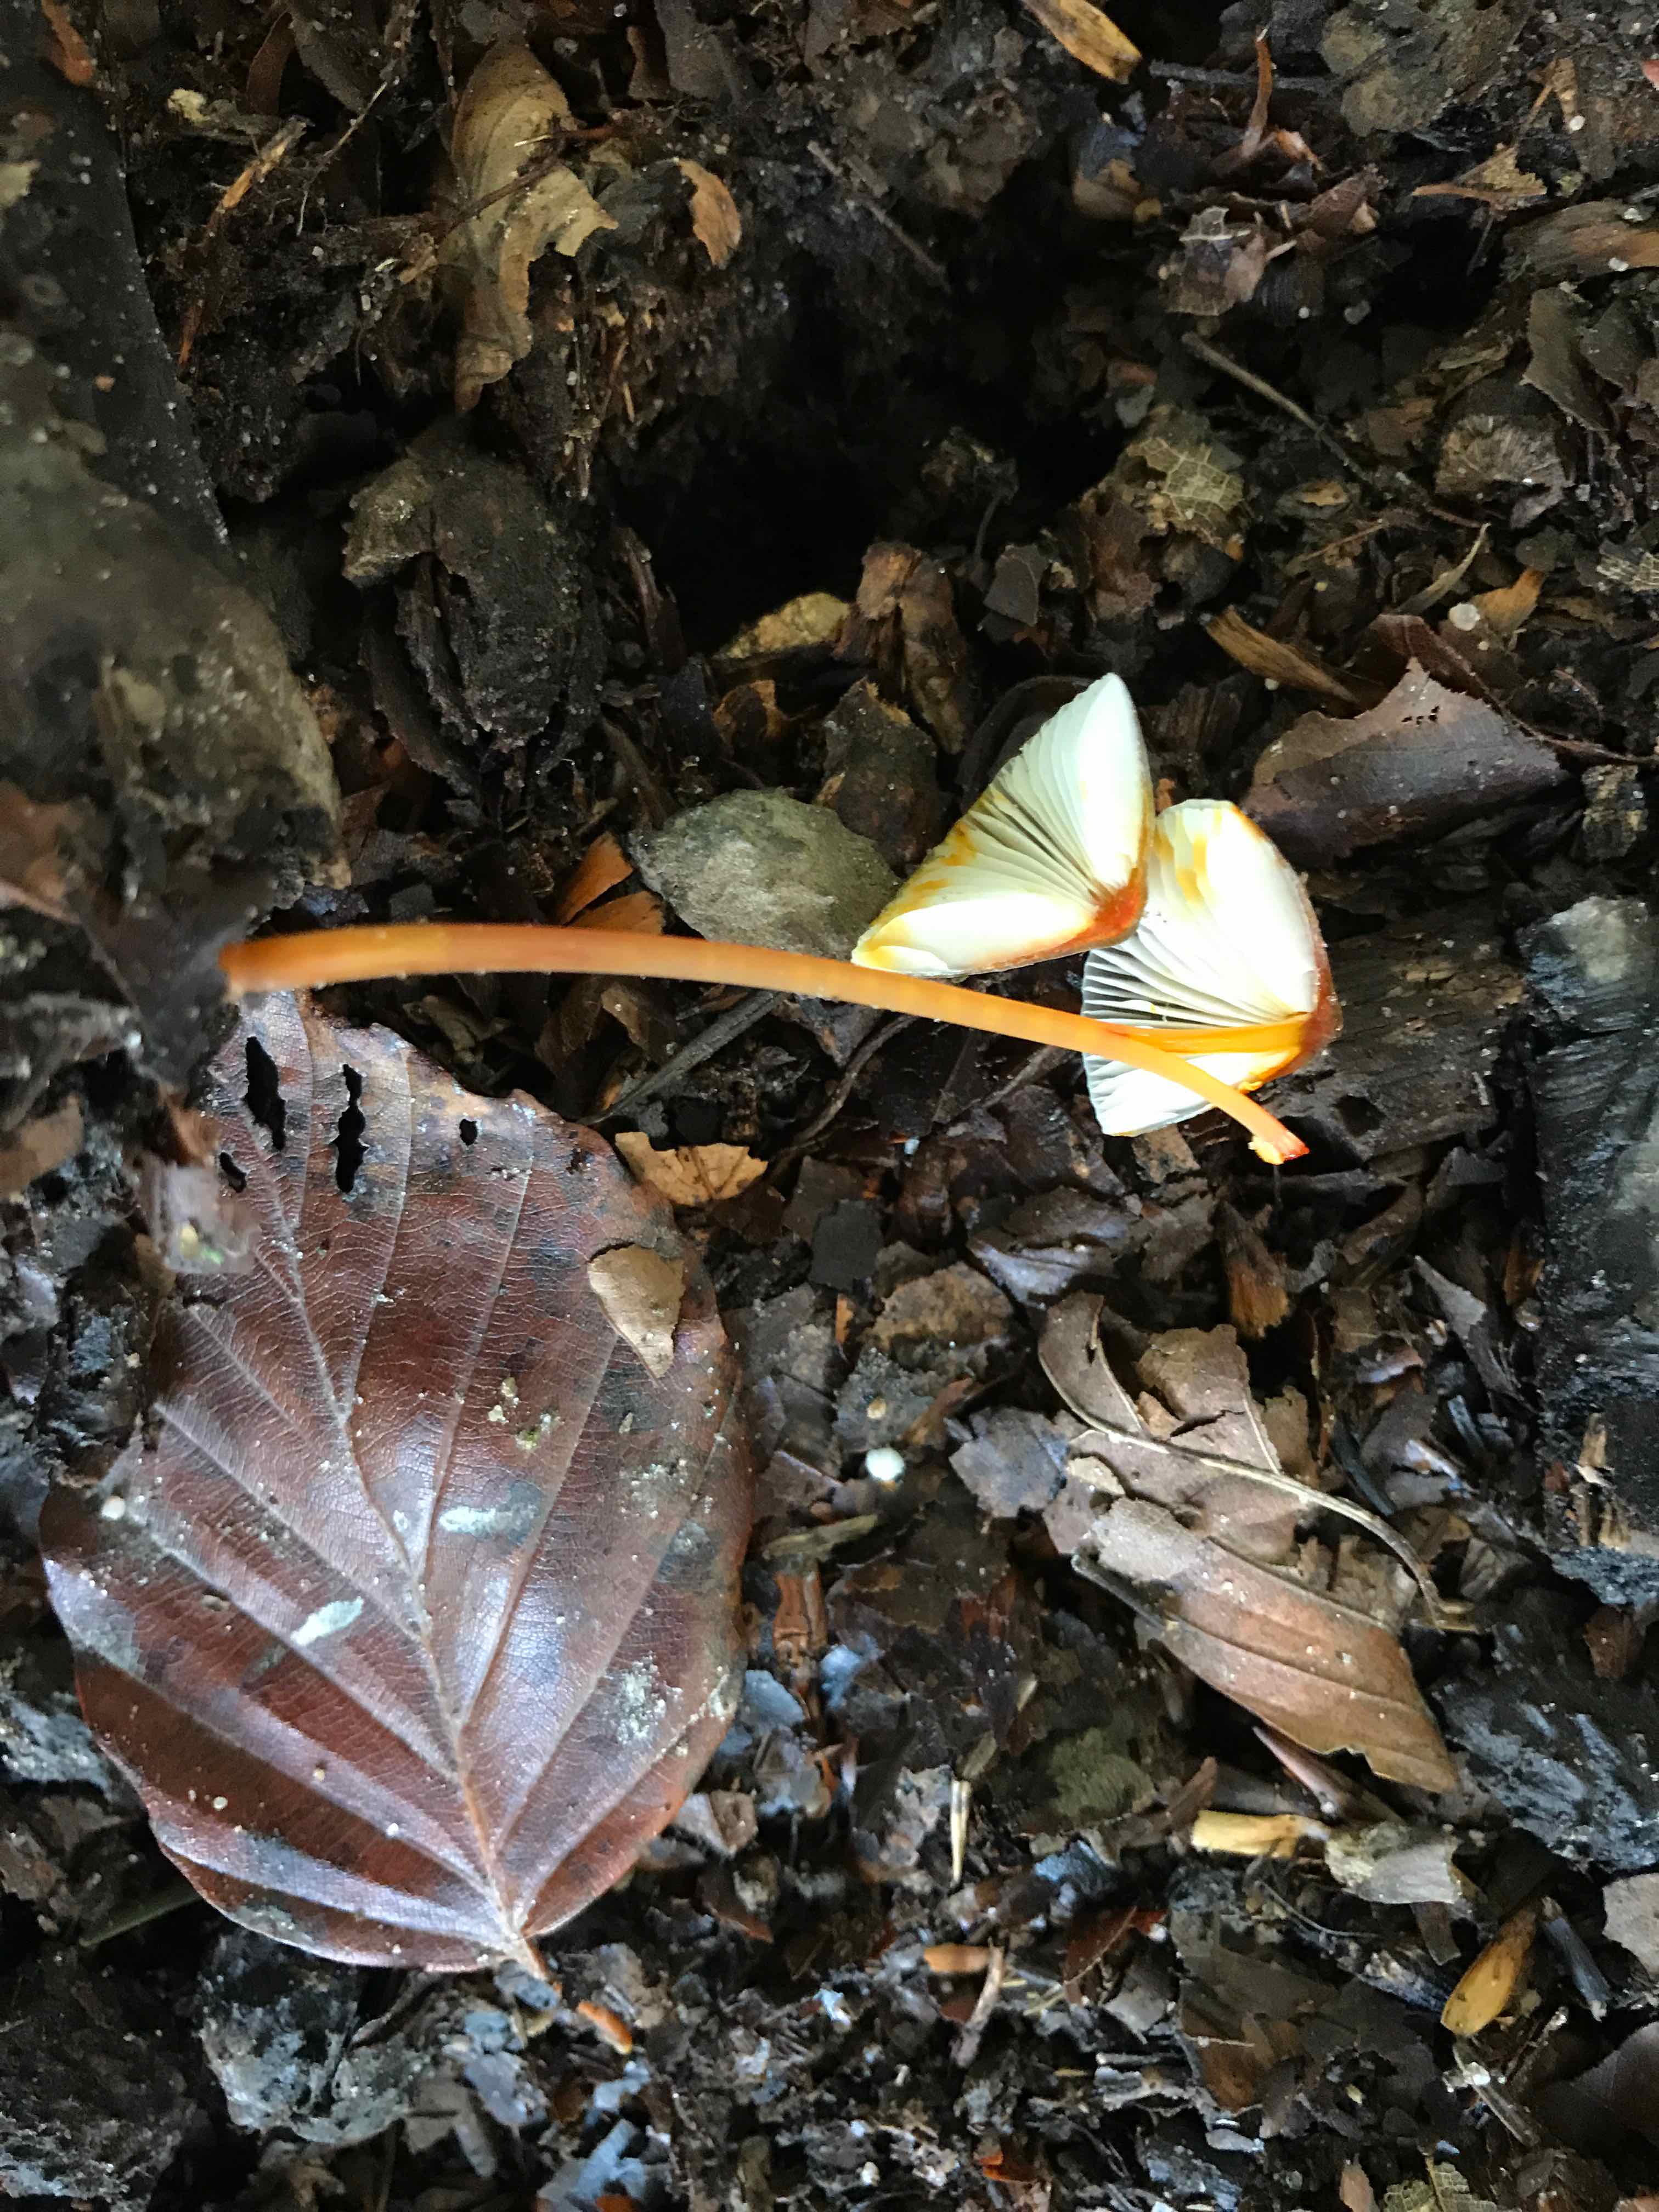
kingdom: Fungi
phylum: Basidiomycota
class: Agaricomycetes
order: Agaricales
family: Mycenaceae
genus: Mycena
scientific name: Mycena crocata
